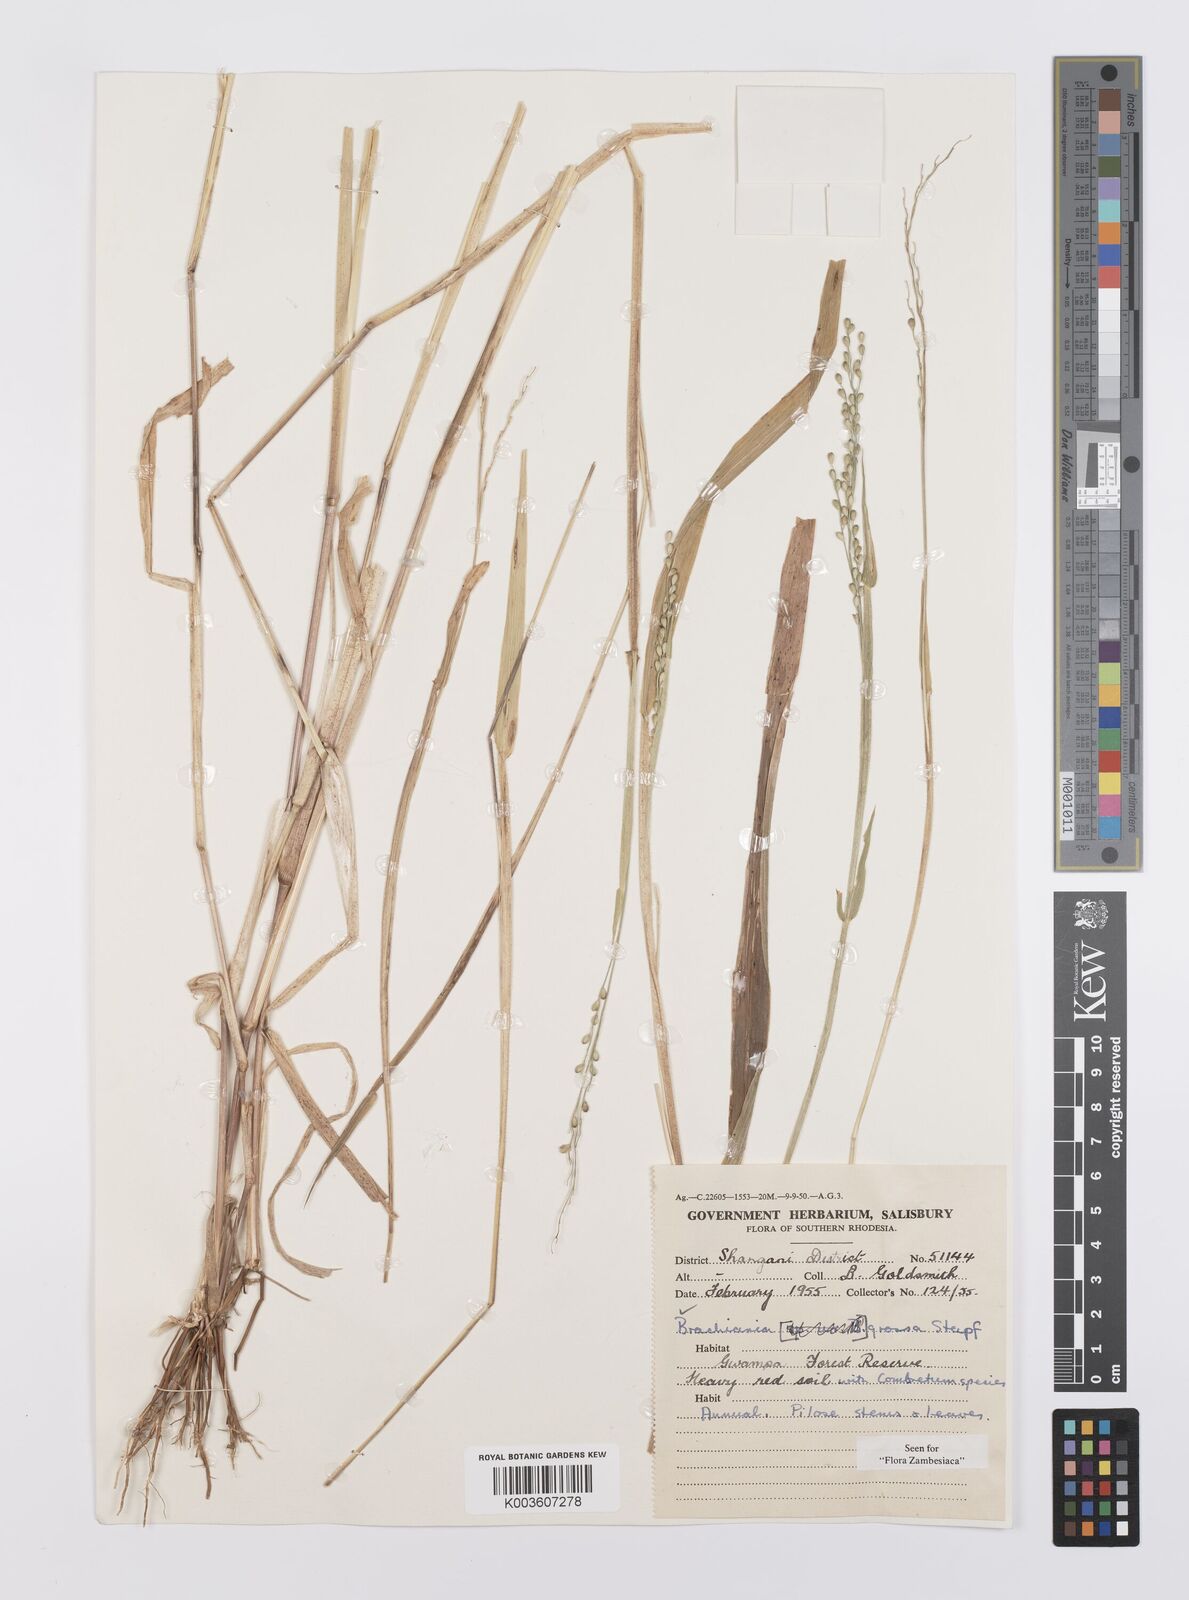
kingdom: Plantae
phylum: Tracheophyta
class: Liliopsida
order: Poales
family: Poaceae
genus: Urochloa
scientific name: Urochloa Brachiaria grossa
